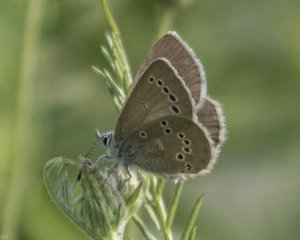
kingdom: Animalia
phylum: Arthropoda
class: Insecta
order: Lepidoptera
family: Lycaenidae
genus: Glaucopsyche
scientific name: Glaucopsyche lygdamus
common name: Silvery Blue
